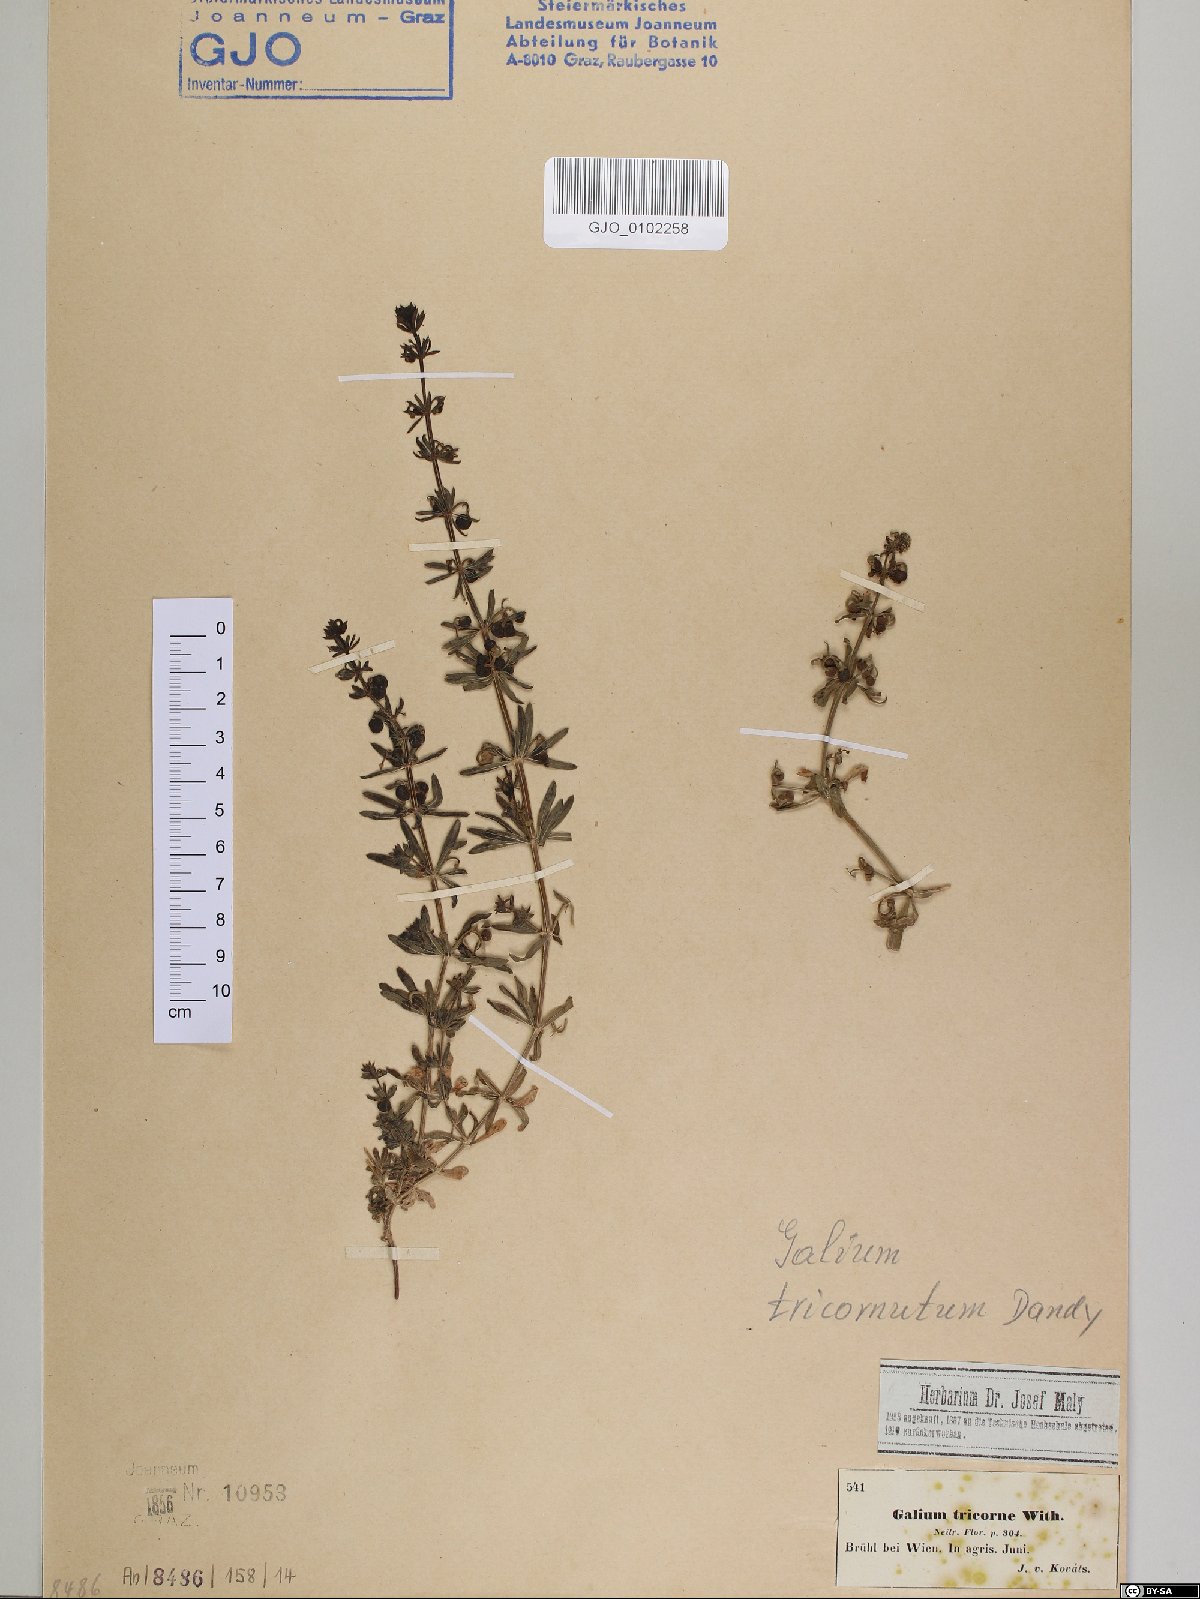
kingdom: Plantae
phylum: Tracheophyta
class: Magnoliopsida
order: Gentianales
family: Rubiaceae
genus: Galium
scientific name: Galium verrucosum
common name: Warty bedstraw
